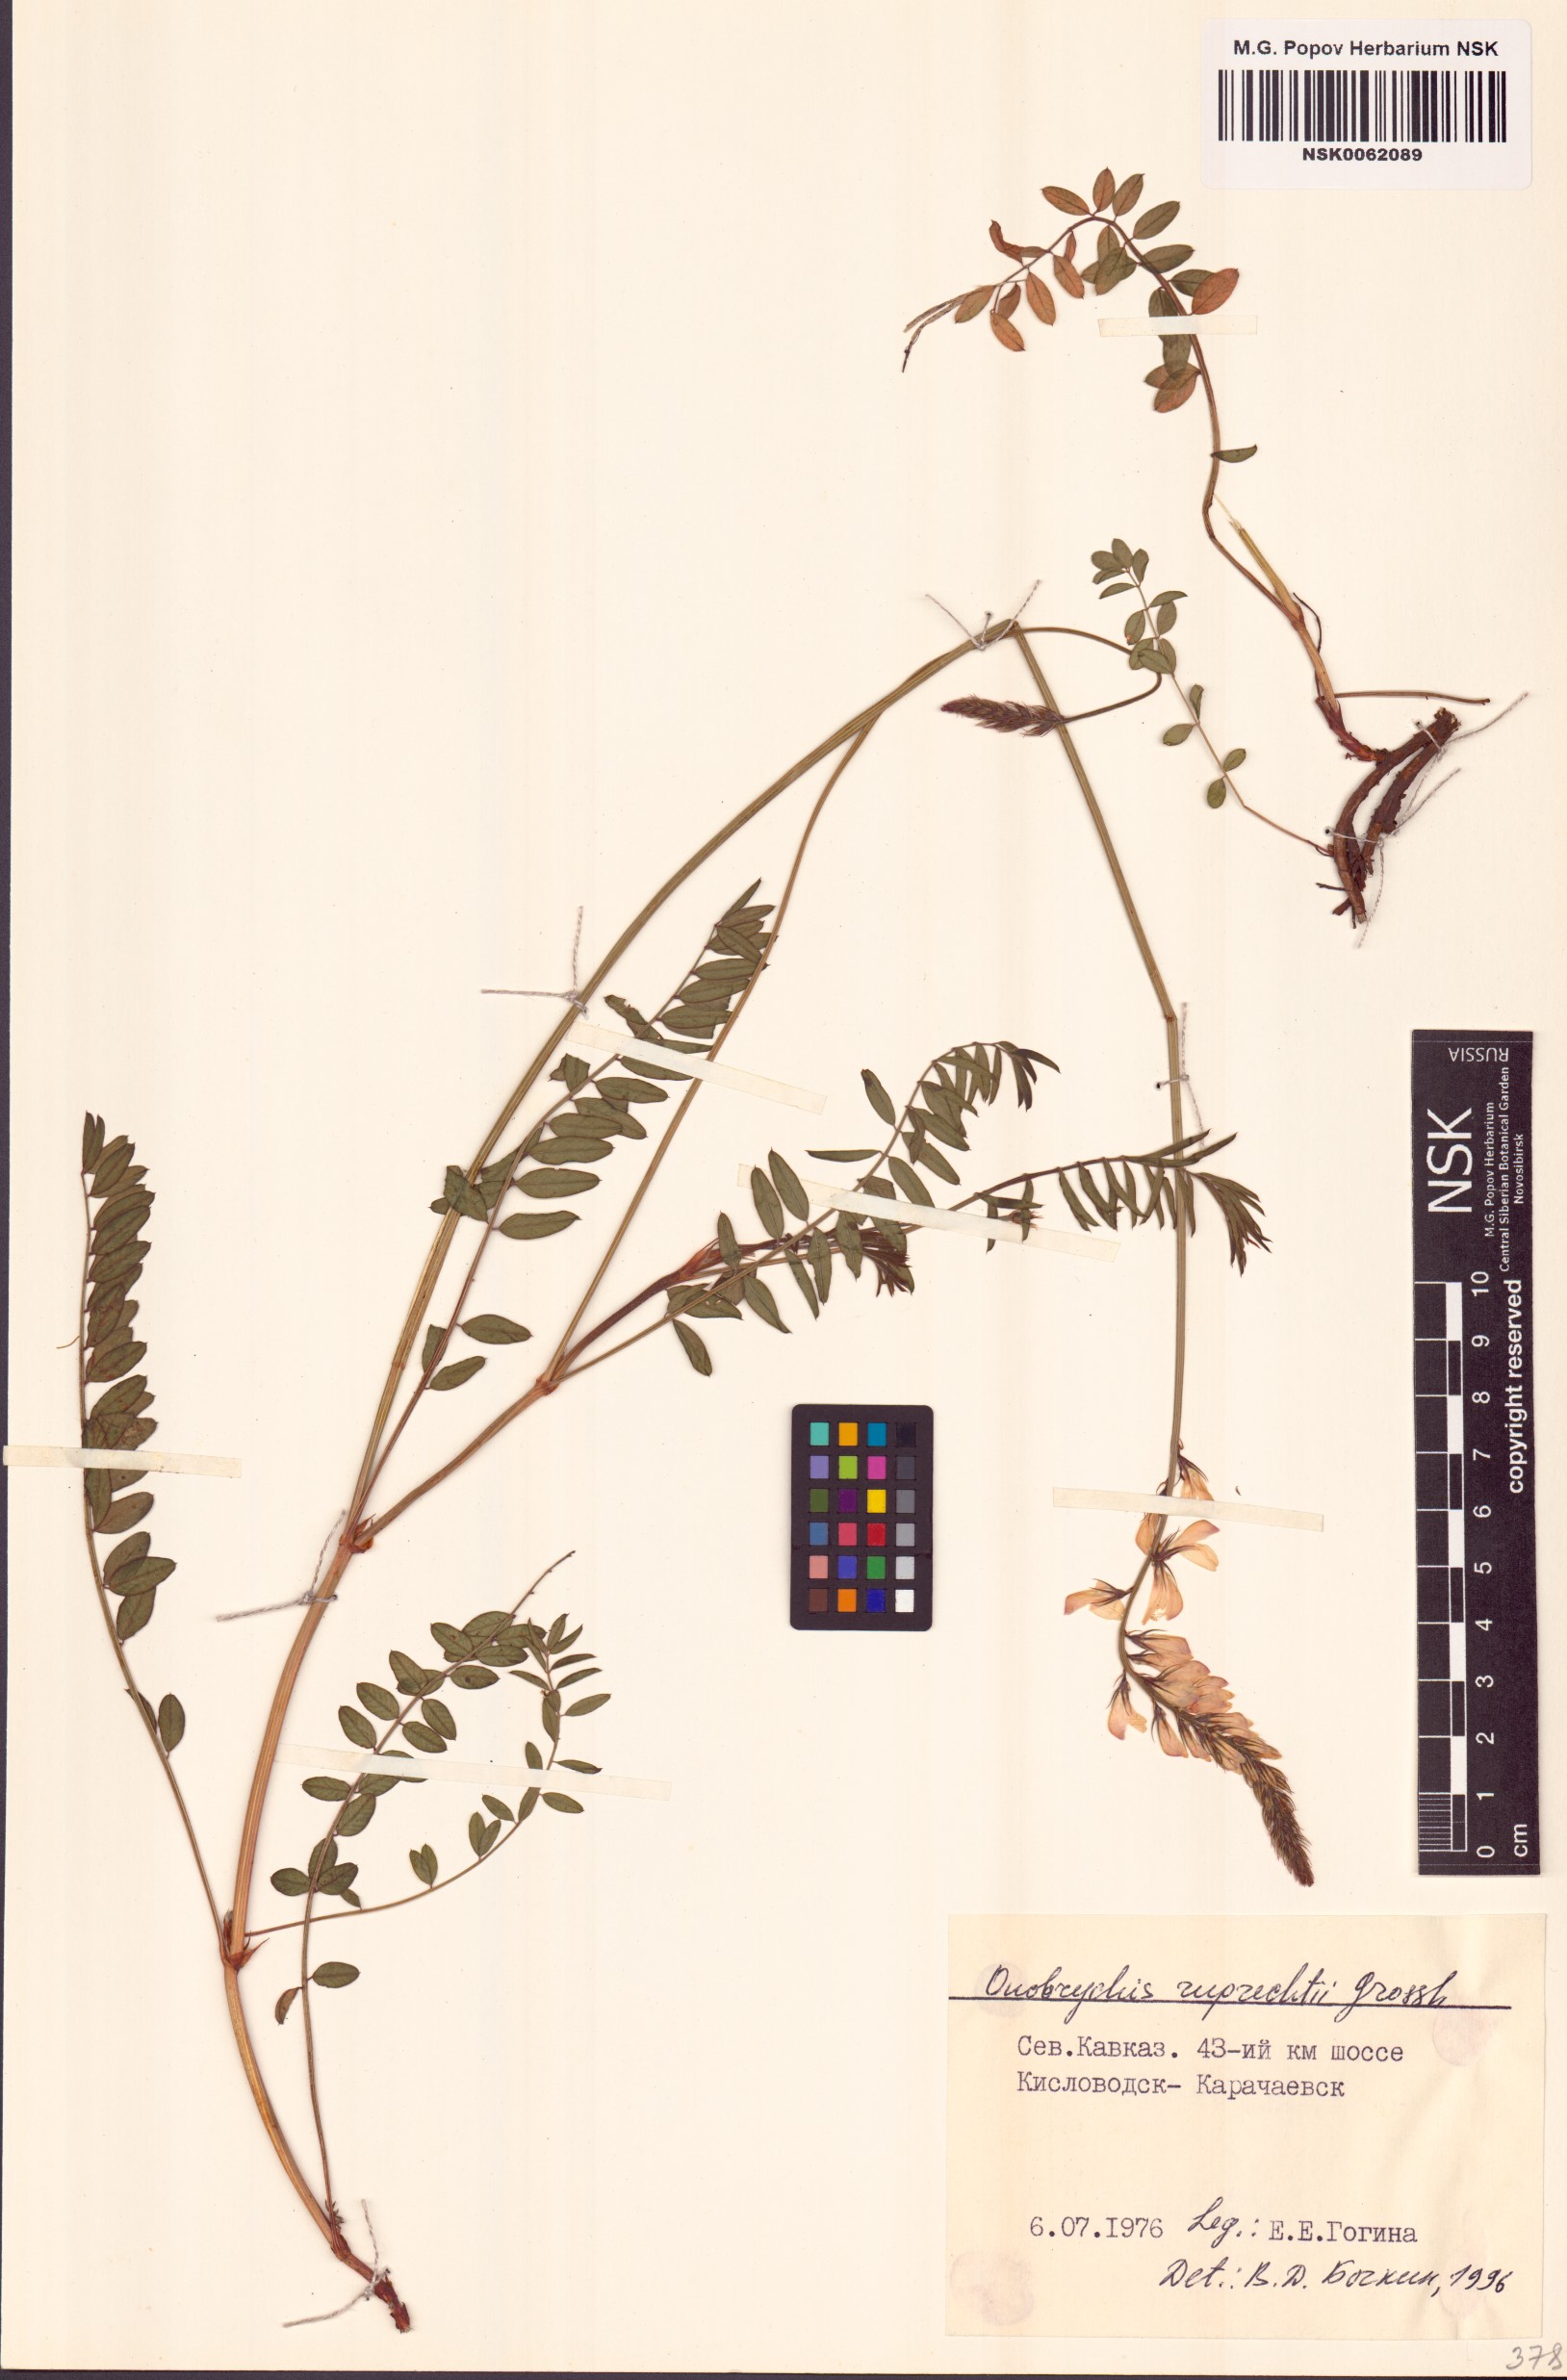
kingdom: Plantae
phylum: Tracheophyta
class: Magnoliopsida
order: Fabales
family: Fabaceae
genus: Onobrychis
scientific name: Onobrychis ruprechtii
